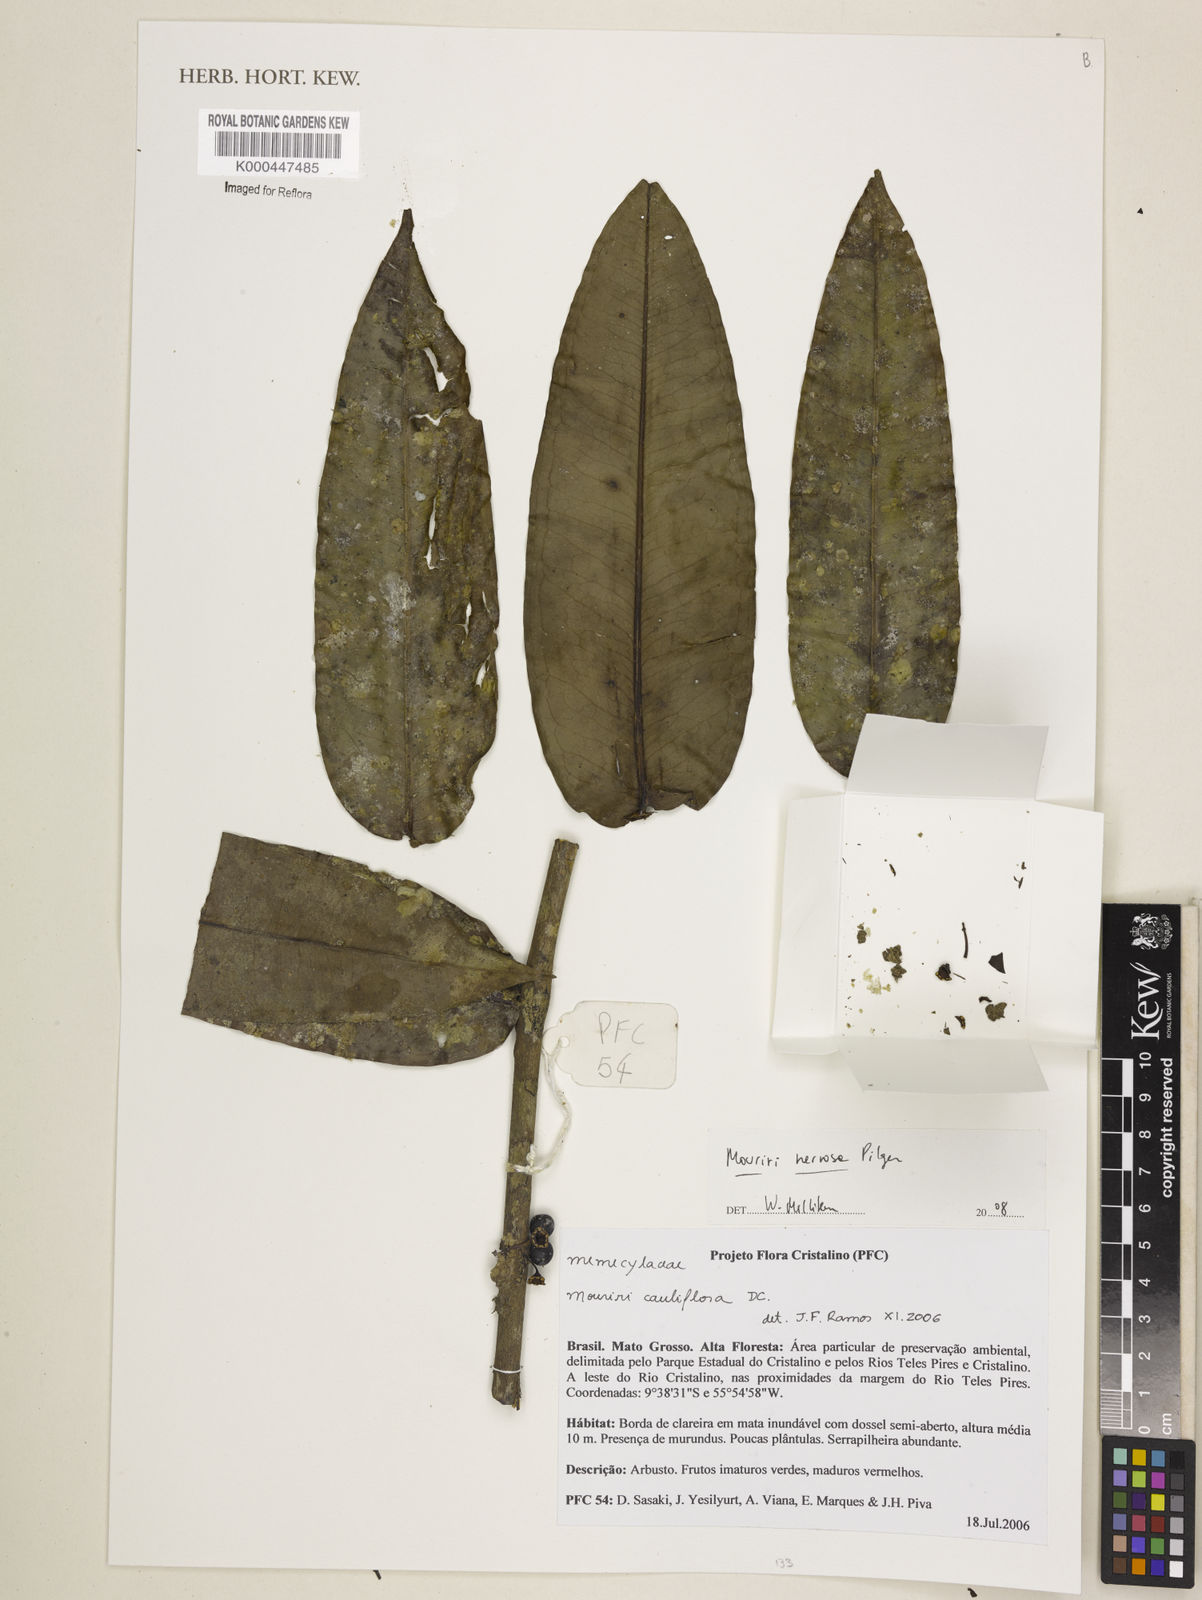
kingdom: Plantae
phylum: Tracheophyta
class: Magnoliopsida
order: Myrtales
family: Melastomataceae
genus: Mouriri
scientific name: Mouriri nervosa
